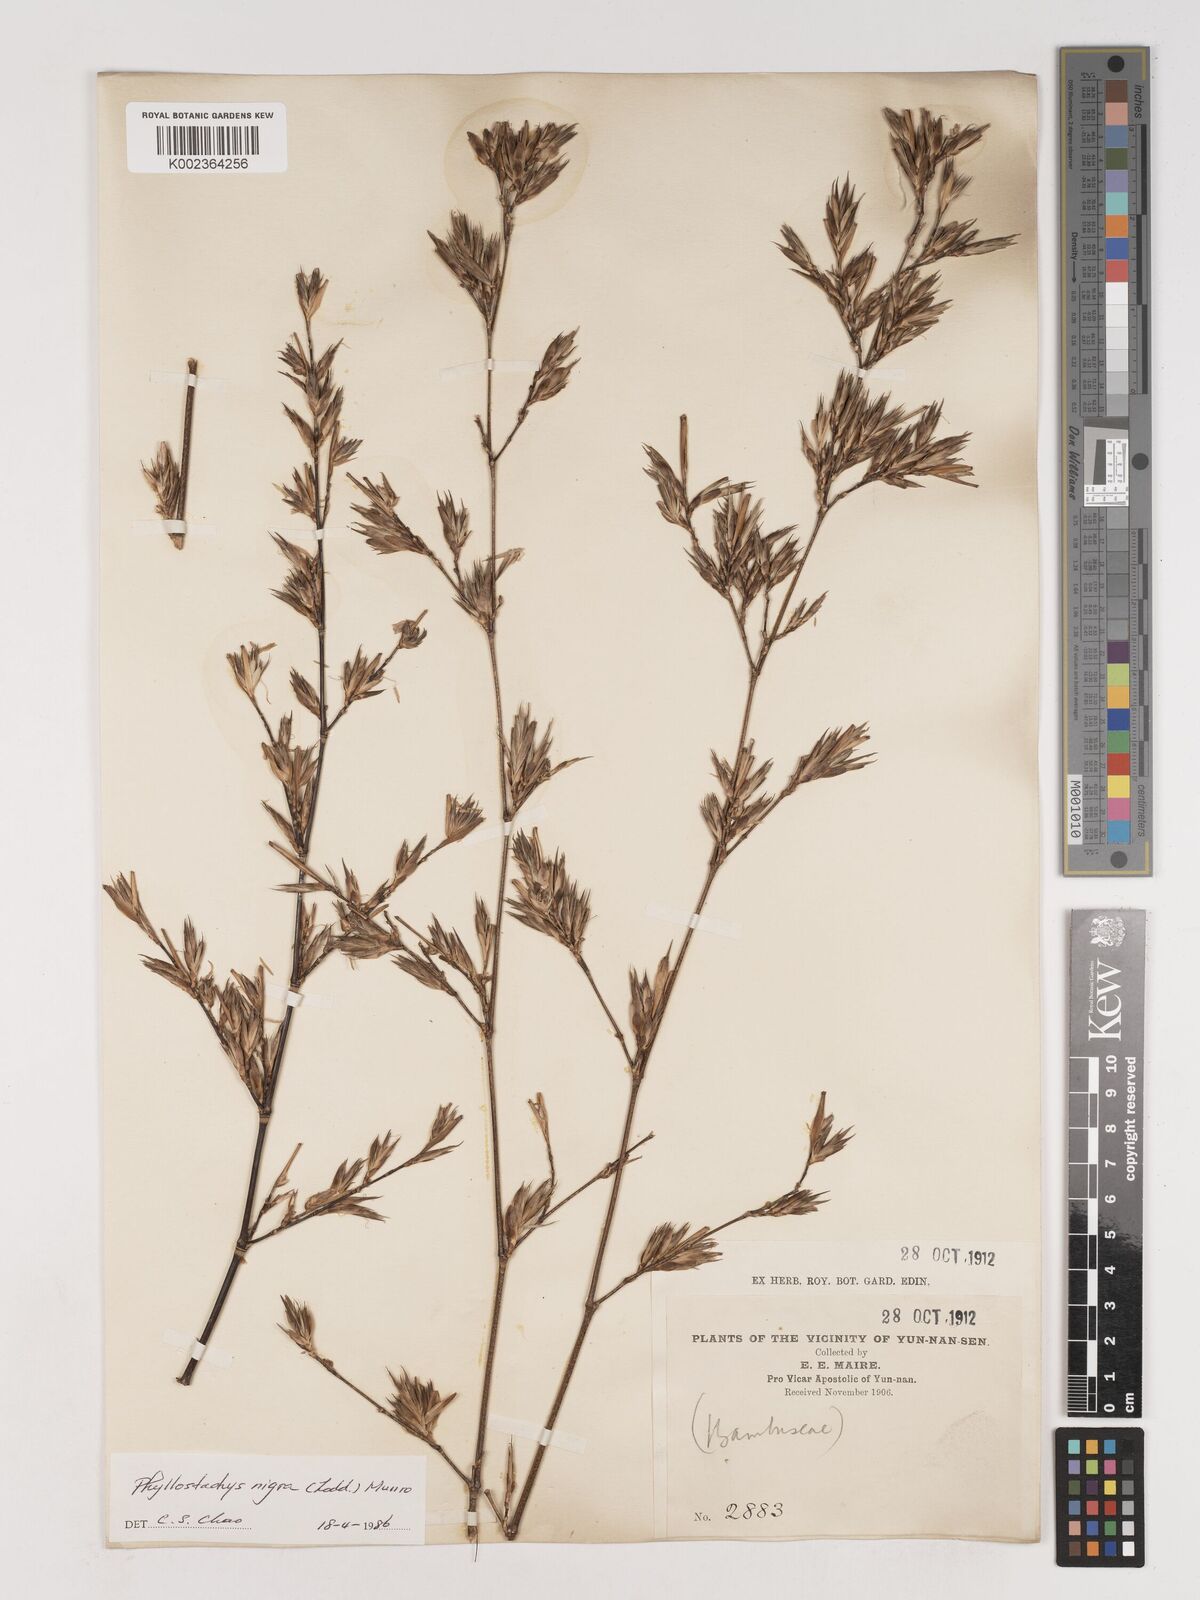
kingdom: Plantae
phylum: Tracheophyta
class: Liliopsida
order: Poales
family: Poaceae
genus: Phyllostachys
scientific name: Phyllostachys nigra
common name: Black bamboo
